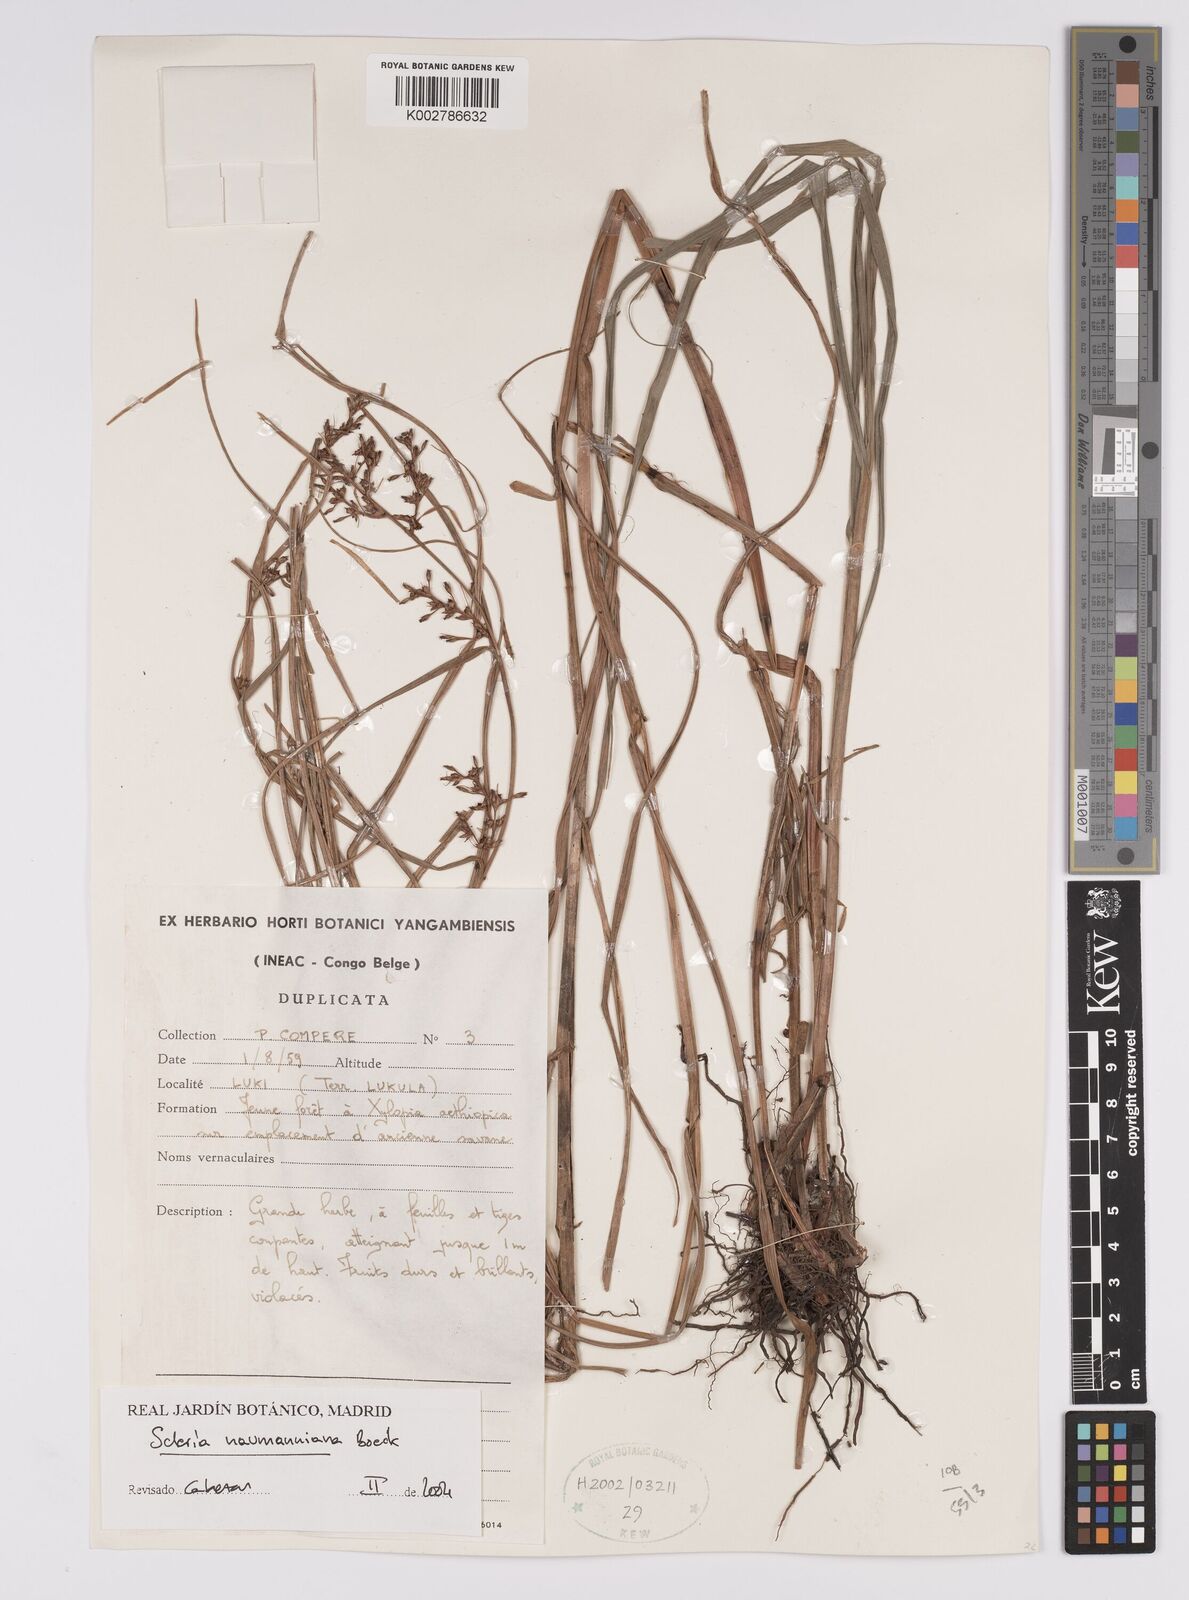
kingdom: Plantae
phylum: Tracheophyta
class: Liliopsida
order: Poales
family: Cyperaceae
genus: Scleria
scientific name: Scleria naumanniana
